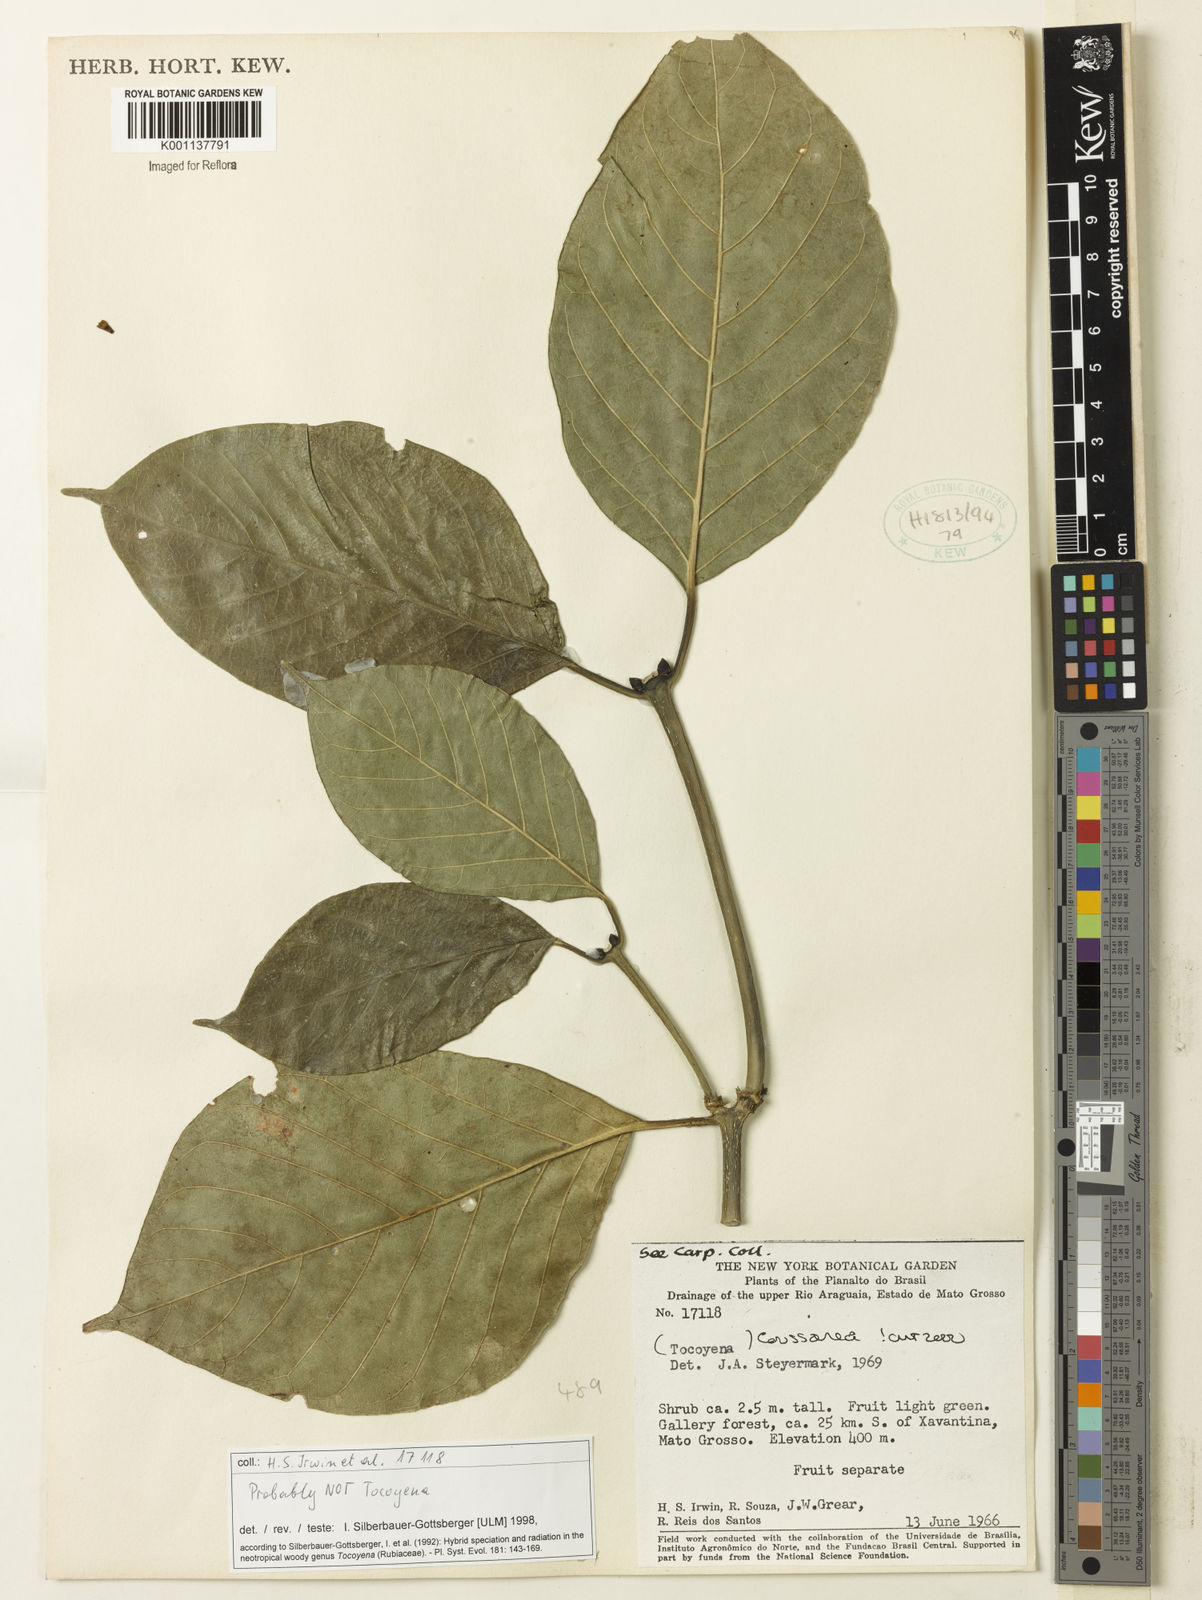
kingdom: Plantae
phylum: Tracheophyta
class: Magnoliopsida
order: Gentianales
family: Rubiaceae
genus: Coussarea
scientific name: Coussarea
